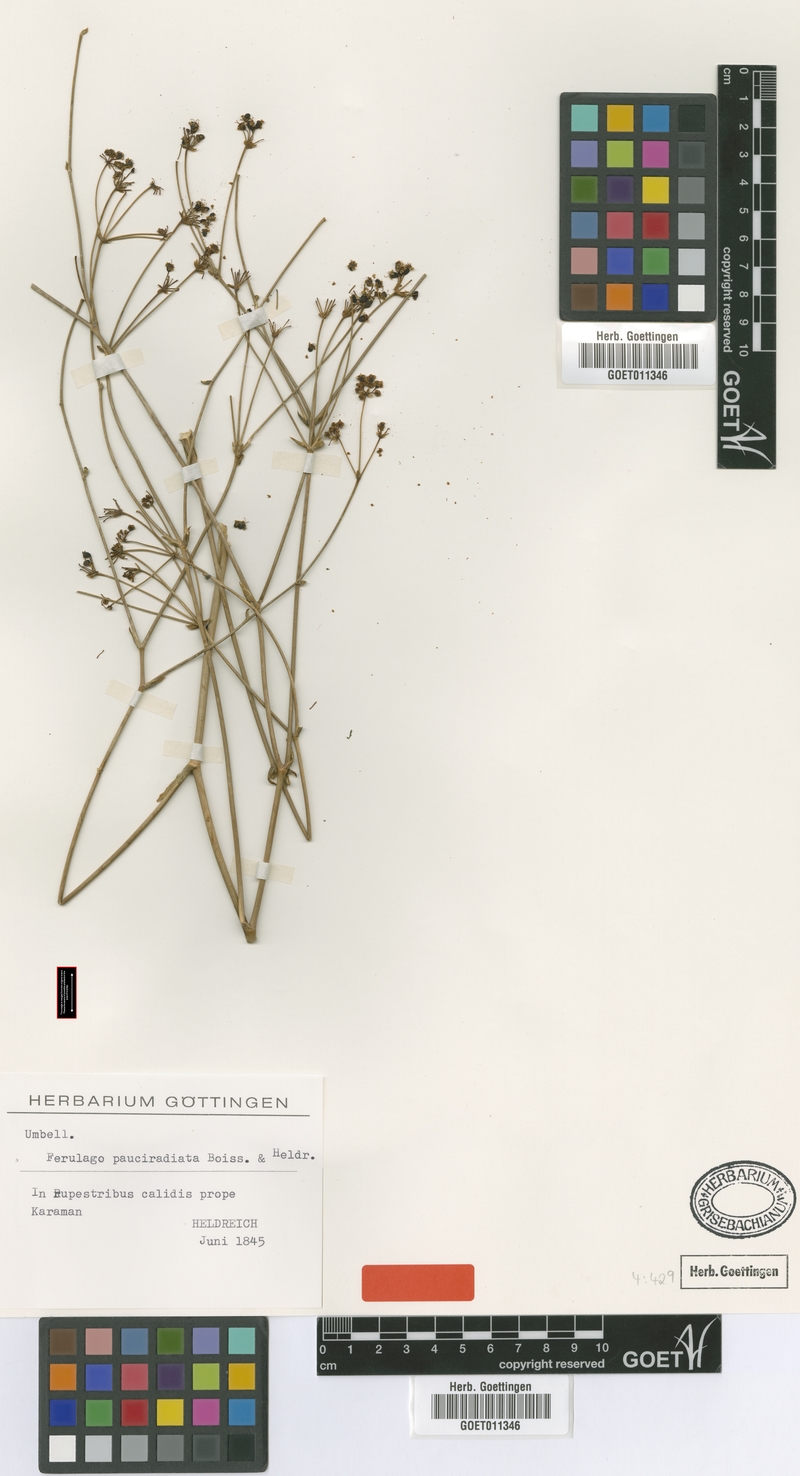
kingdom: Plantae
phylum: Tracheophyta
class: Magnoliopsida
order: Apiales
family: Apiaceae
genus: Ferulago
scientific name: Ferulago armena
